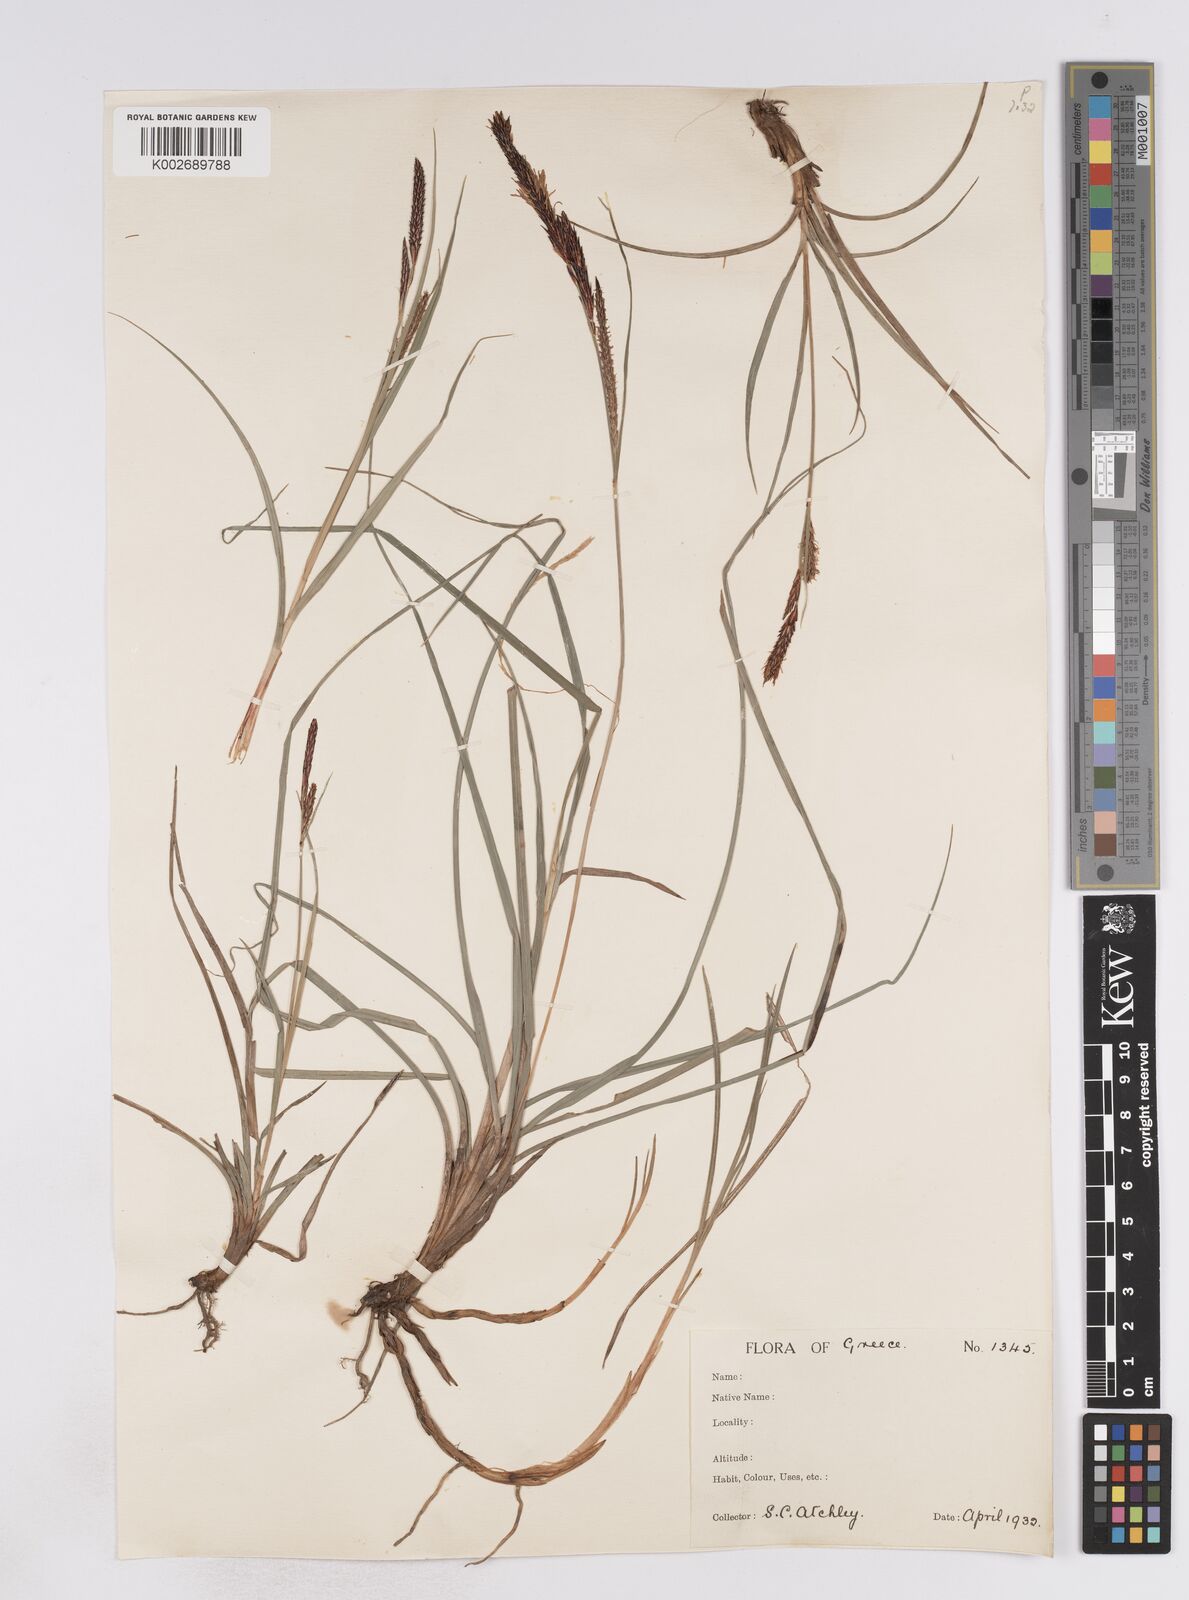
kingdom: Plantae
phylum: Tracheophyta
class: Liliopsida
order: Poales
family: Cyperaceae
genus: Carex
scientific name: Carex flacca
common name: Glaucous sedge
